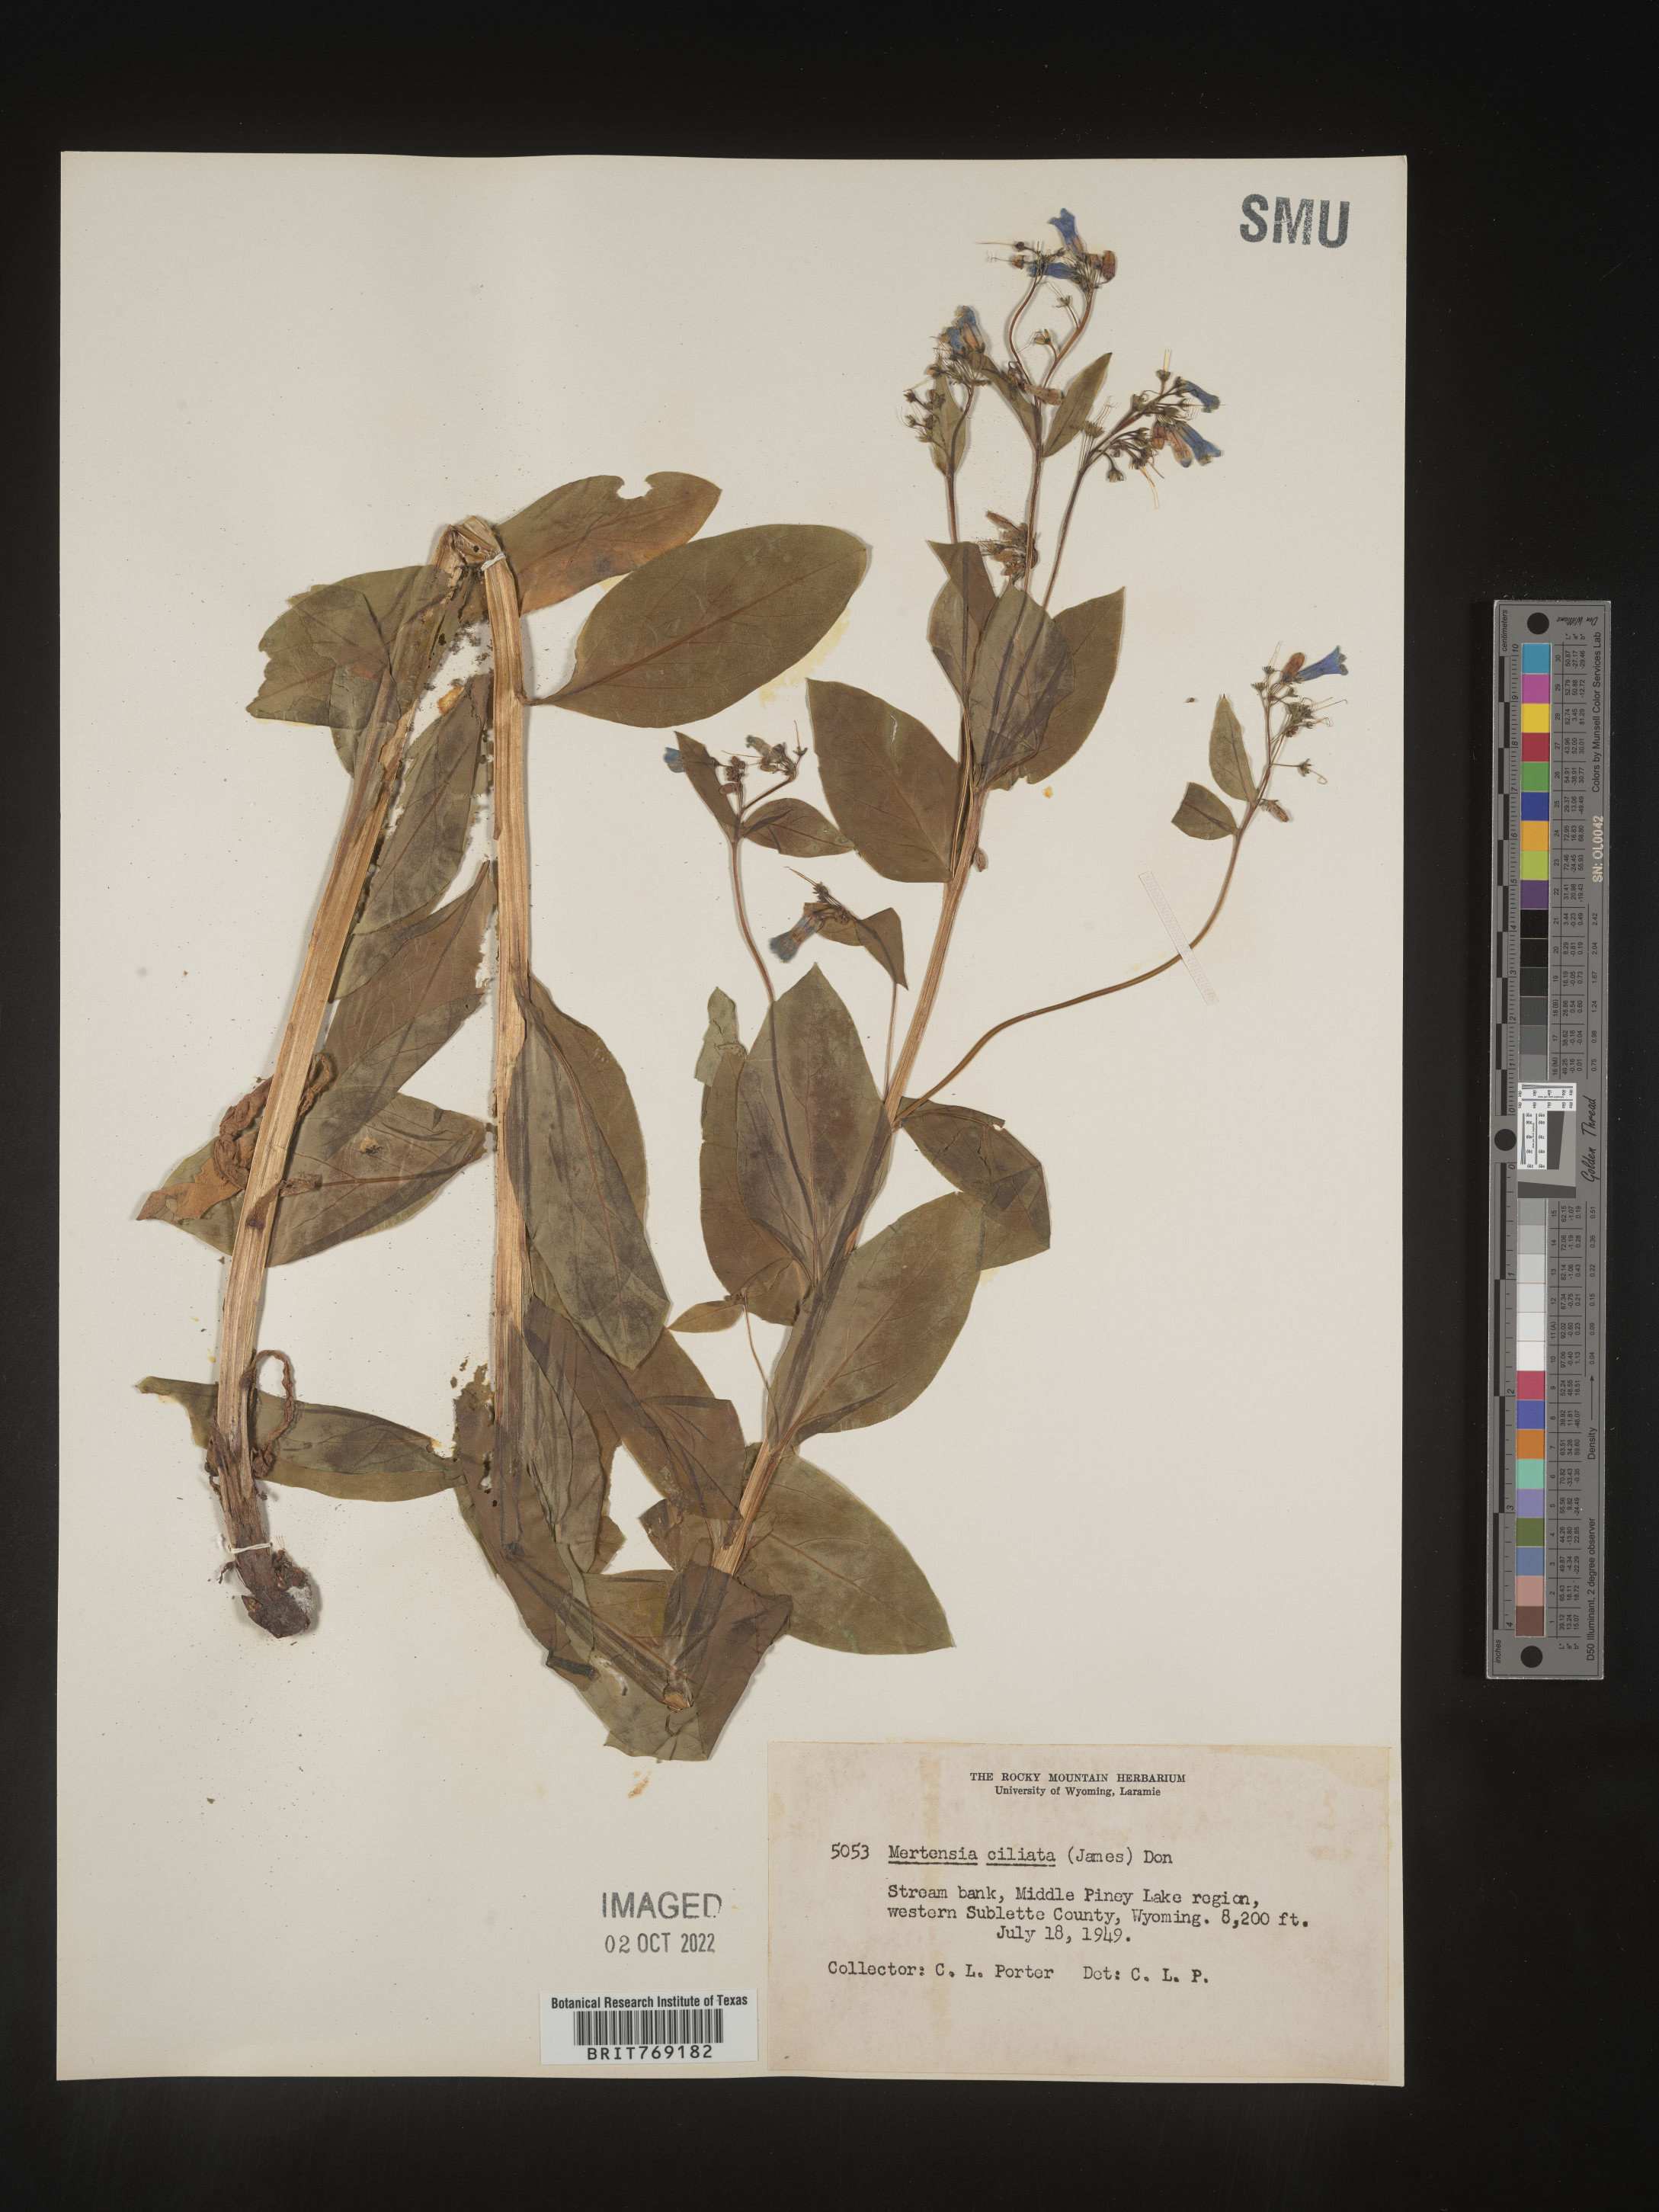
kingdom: Plantae
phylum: Tracheophyta
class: Magnoliopsida
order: Boraginales
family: Boraginaceae
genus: Mertensia
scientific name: Mertensia
